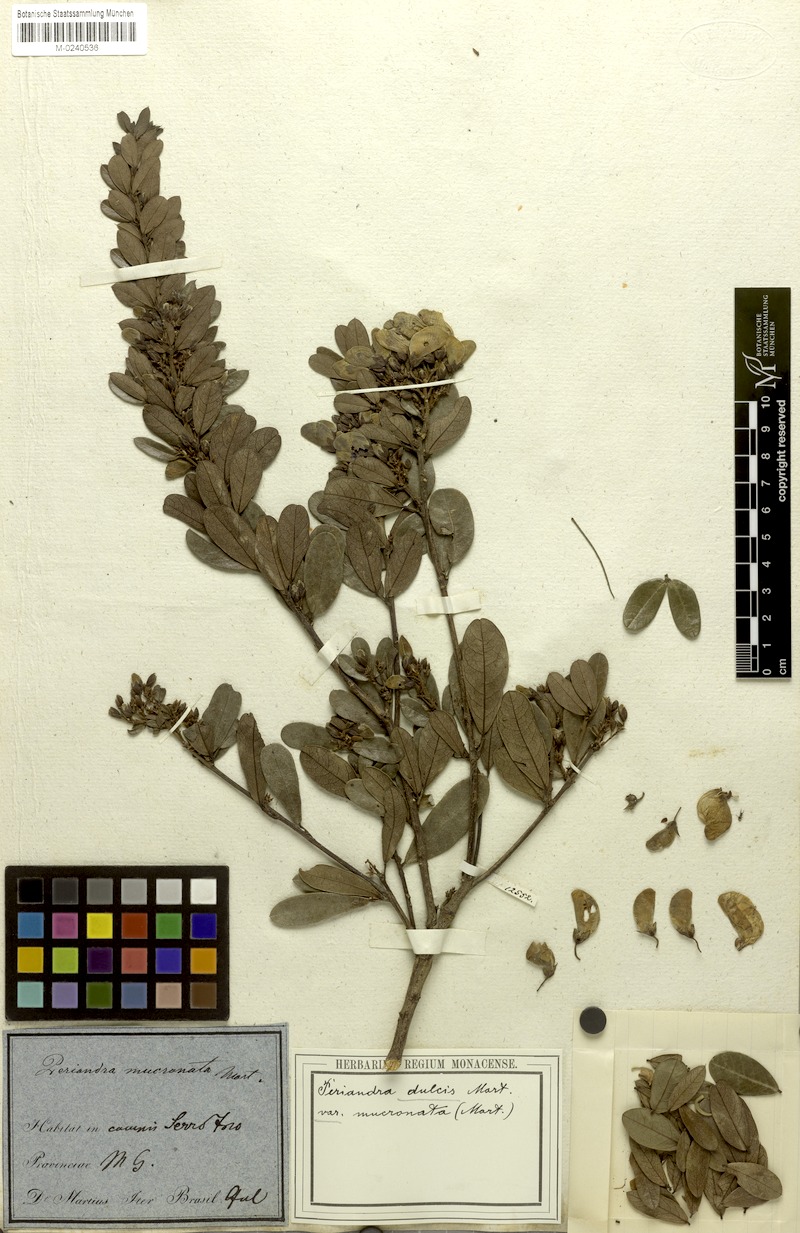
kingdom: Plantae
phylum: Tracheophyta
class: Magnoliopsida
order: Fabales
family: Fabaceae
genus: Periandra
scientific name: Periandra mediterranea
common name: Brazilian licorice
